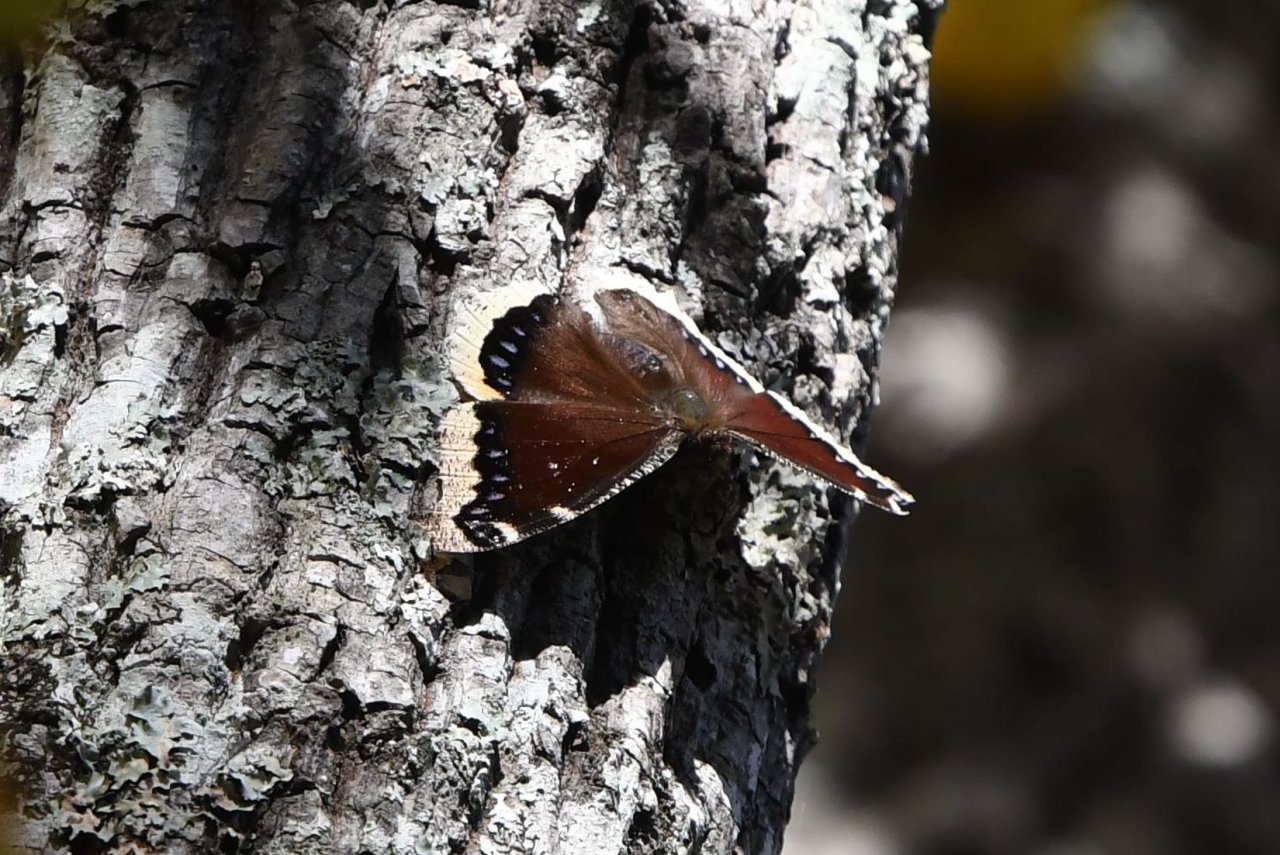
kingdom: Animalia
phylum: Arthropoda
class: Insecta
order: Lepidoptera
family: Nymphalidae
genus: Nymphalis
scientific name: Nymphalis antiopa
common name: Mourning Cloak
